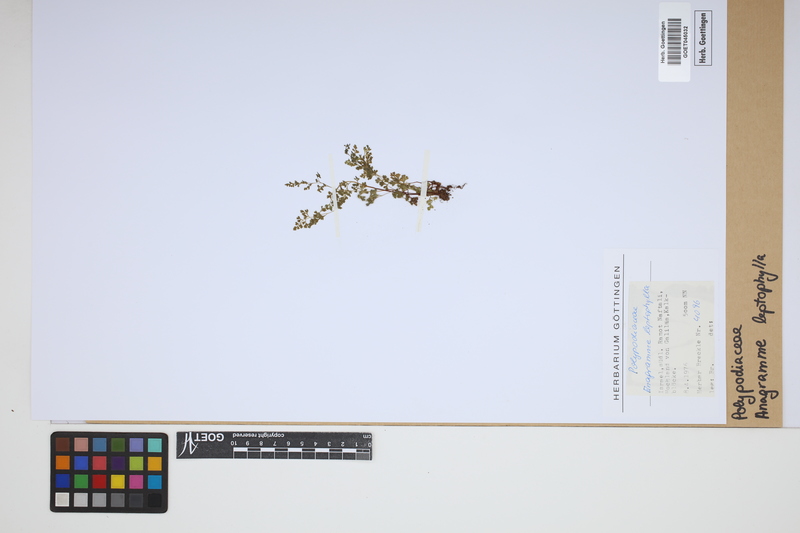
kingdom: Plantae
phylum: Tracheophyta
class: Polypodiopsida
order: Polypodiales
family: Pteridaceae
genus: Anogramma
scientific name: Anogramma leptophylla
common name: Jersey fern
